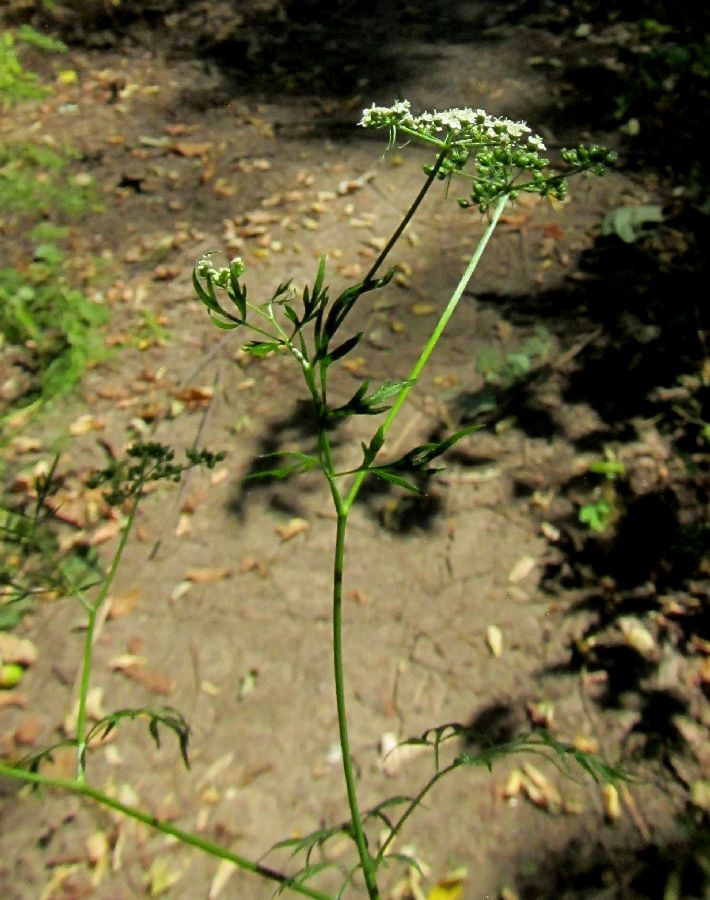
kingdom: Plantae
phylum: Tracheophyta
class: Magnoliopsida
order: Apiales
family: Apiaceae
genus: Aethusa
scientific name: Aethusa cynapium
